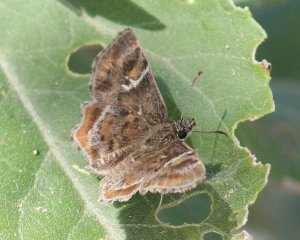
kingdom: Animalia
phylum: Arthropoda
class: Insecta
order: Lepidoptera
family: Hesperiidae
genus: Systasea
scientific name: Systasea pulverulenta
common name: Texas Powdered-Skipper
